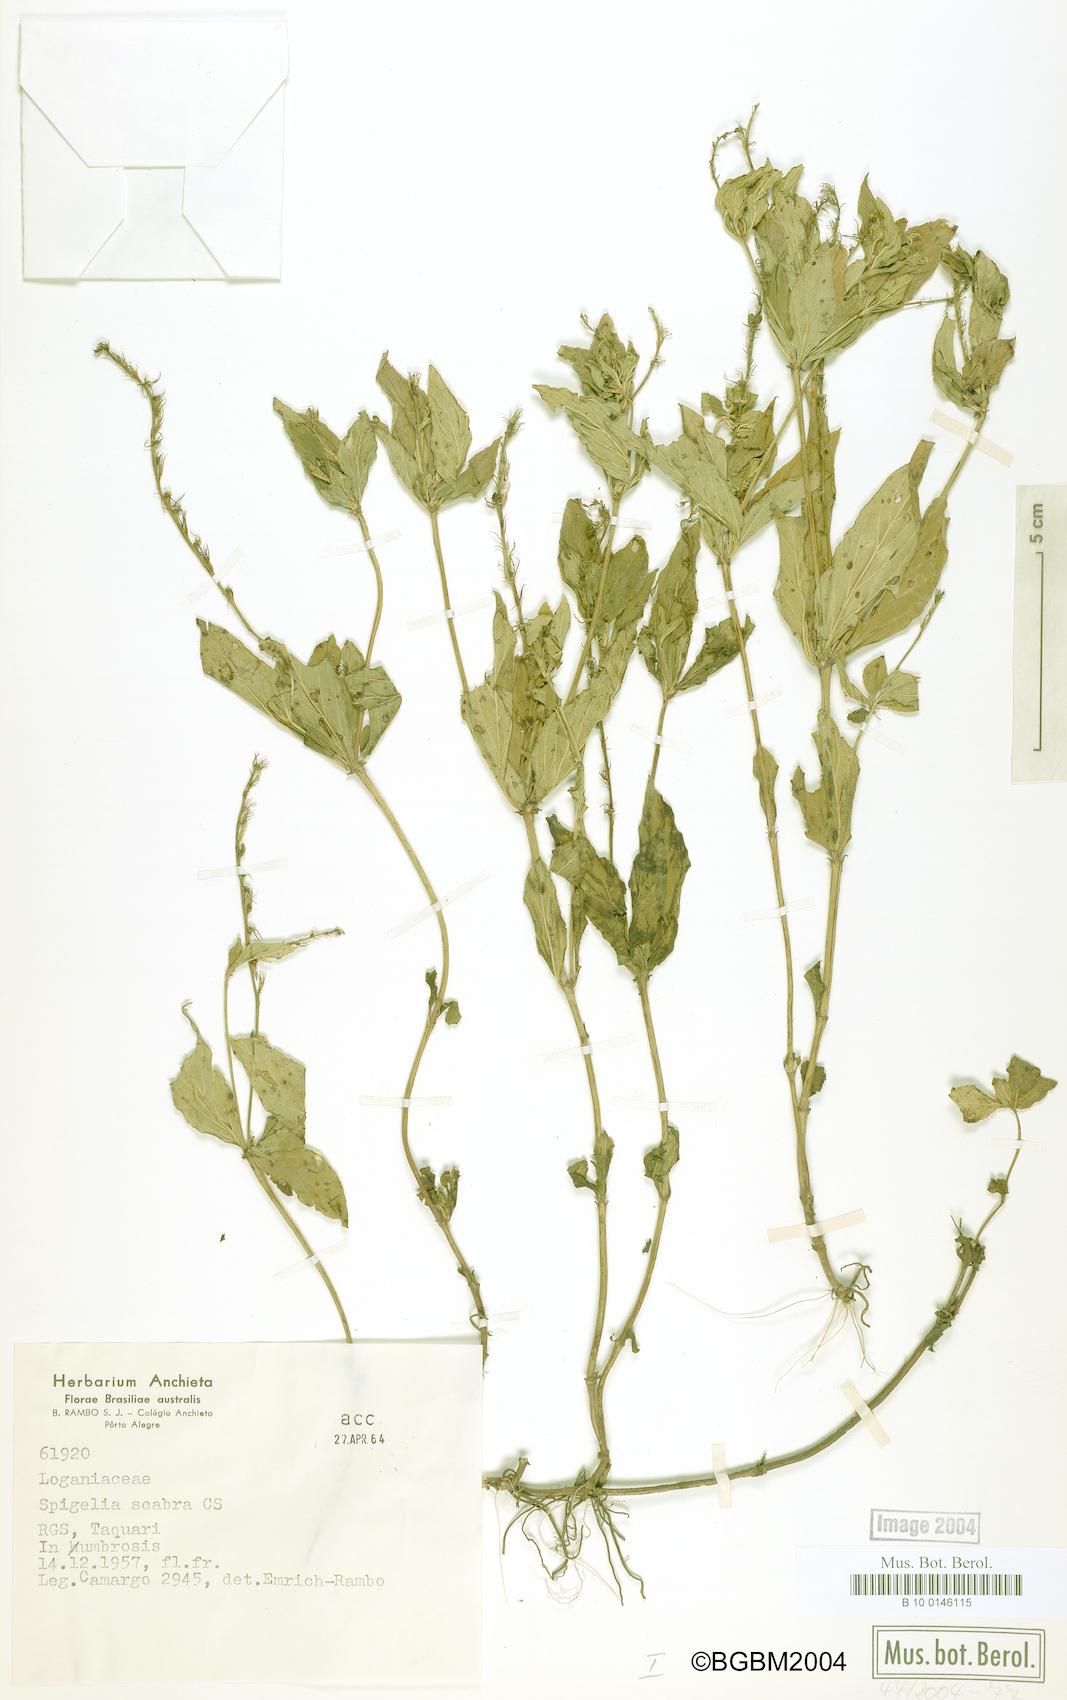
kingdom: Plantae
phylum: Tracheophyta
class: Magnoliopsida
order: Gentianales
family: Loganiaceae
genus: Spigelia
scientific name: Spigelia humboldtiana
